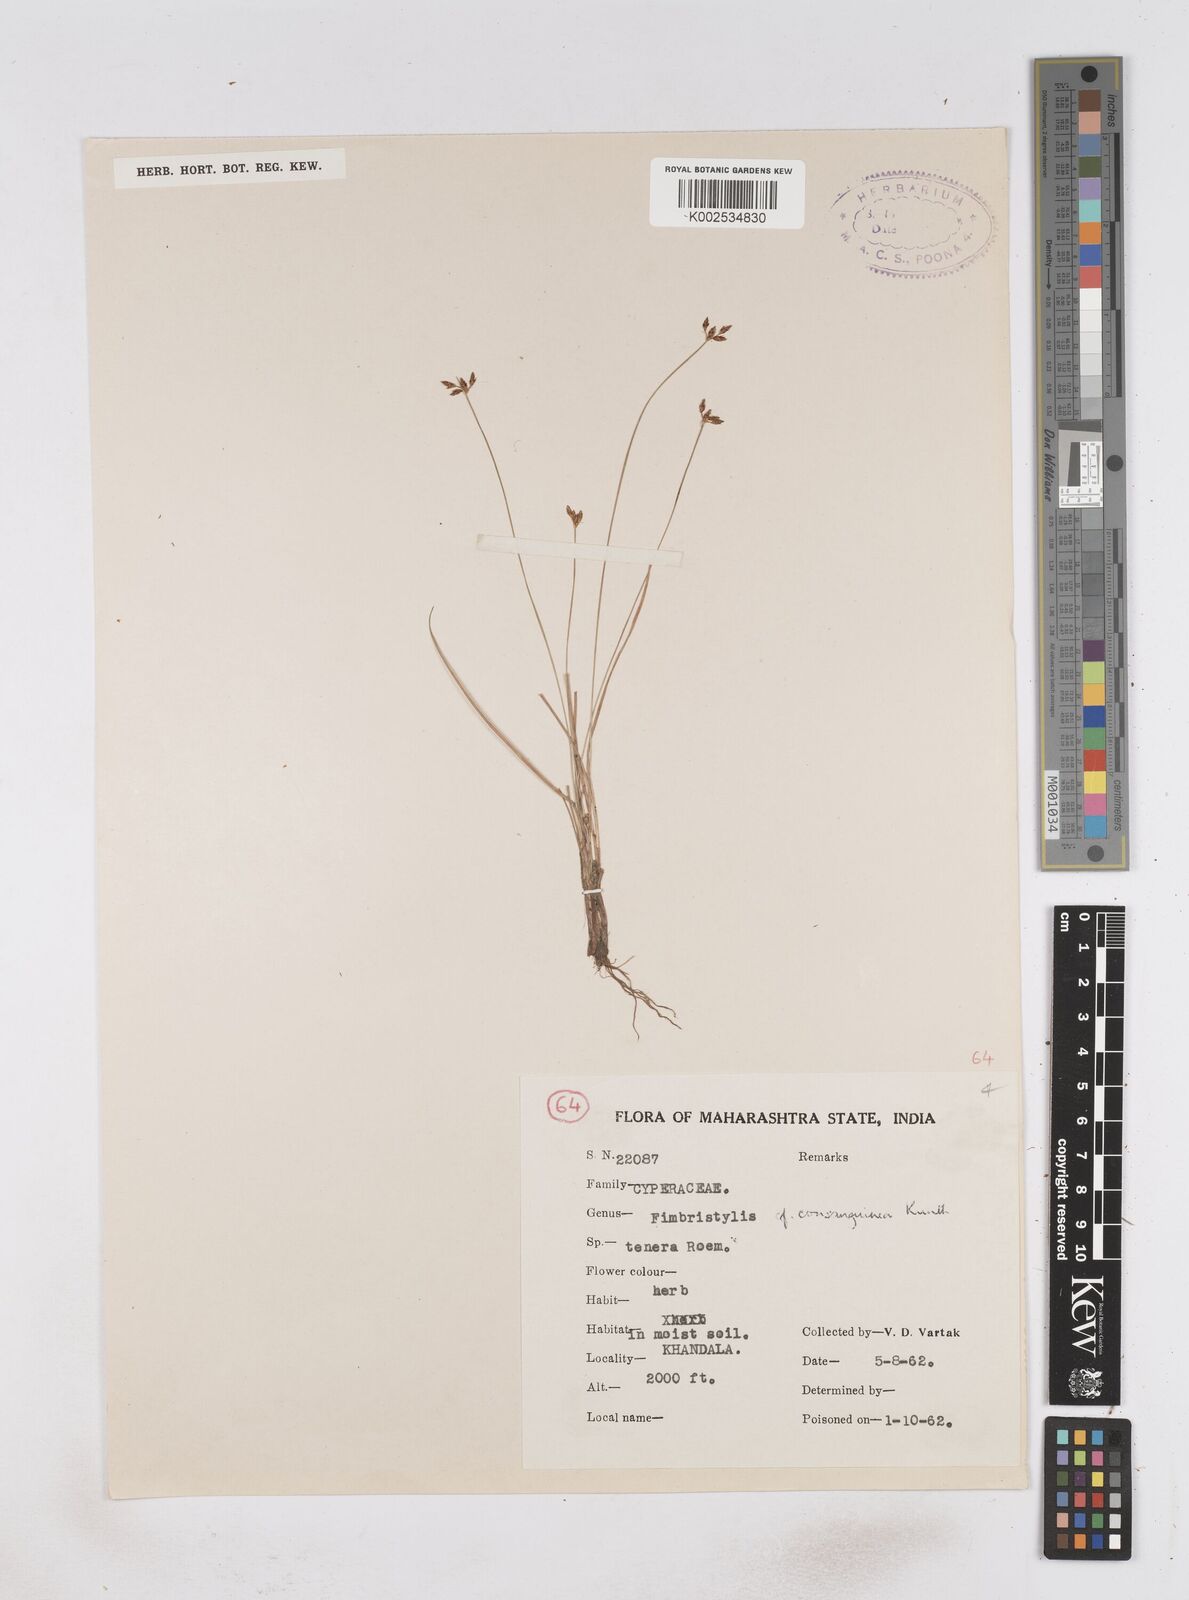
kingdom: Plantae
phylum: Tracheophyta
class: Liliopsida
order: Poales
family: Cyperaceae
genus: Fimbristylis
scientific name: Fimbristylis consanguinea
